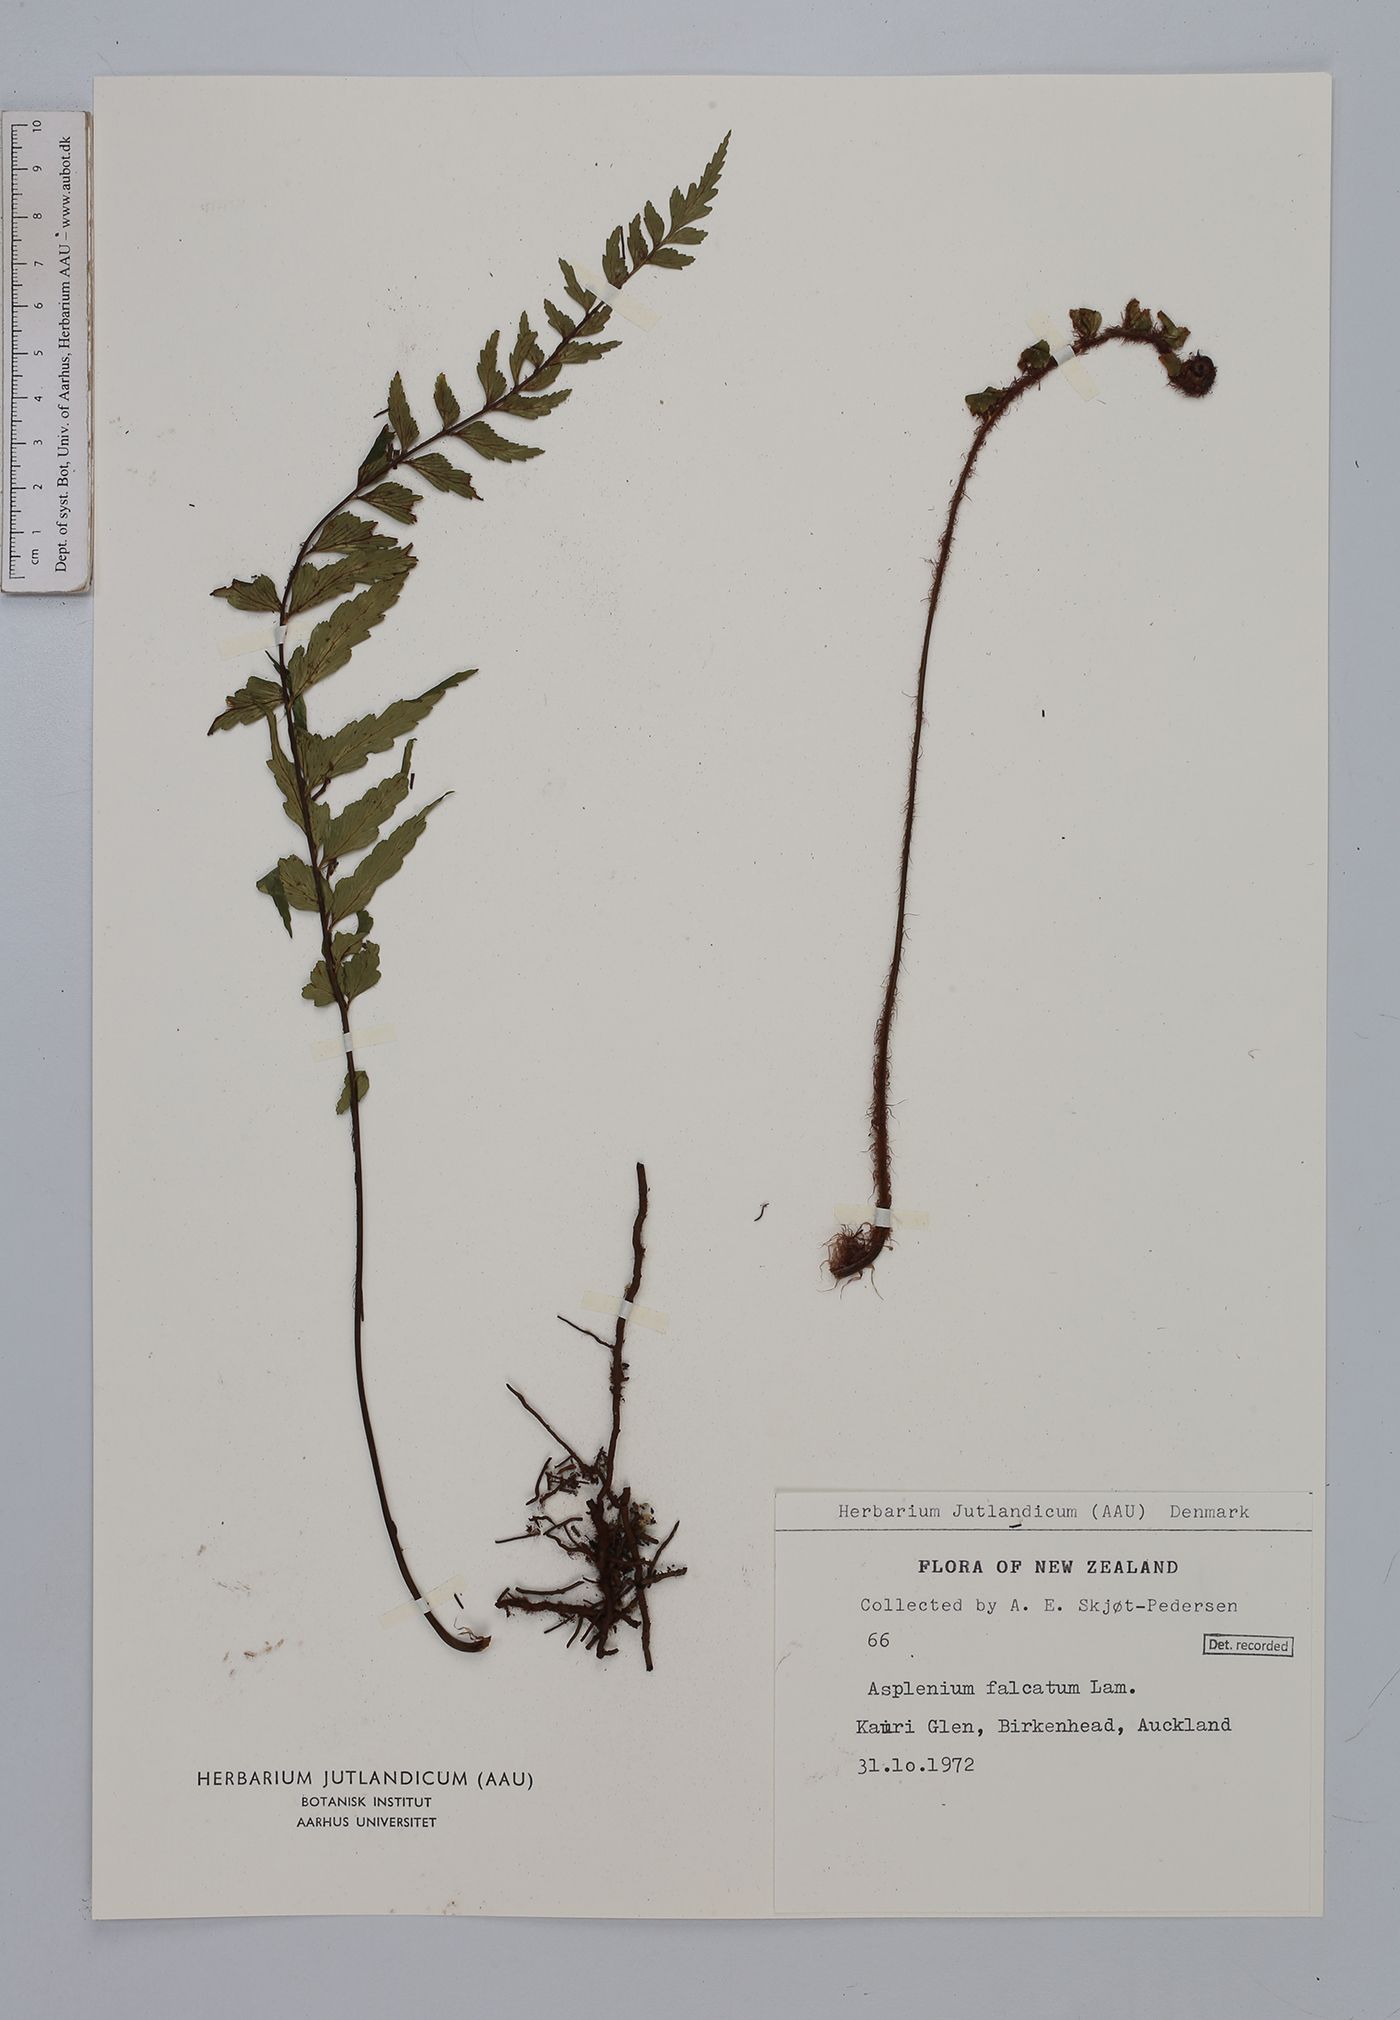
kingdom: Plantae
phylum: Tracheophyta
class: Polypodiopsida
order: Polypodiales
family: Aspleniaceae
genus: Asplenium
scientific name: Asplenium falcatum
